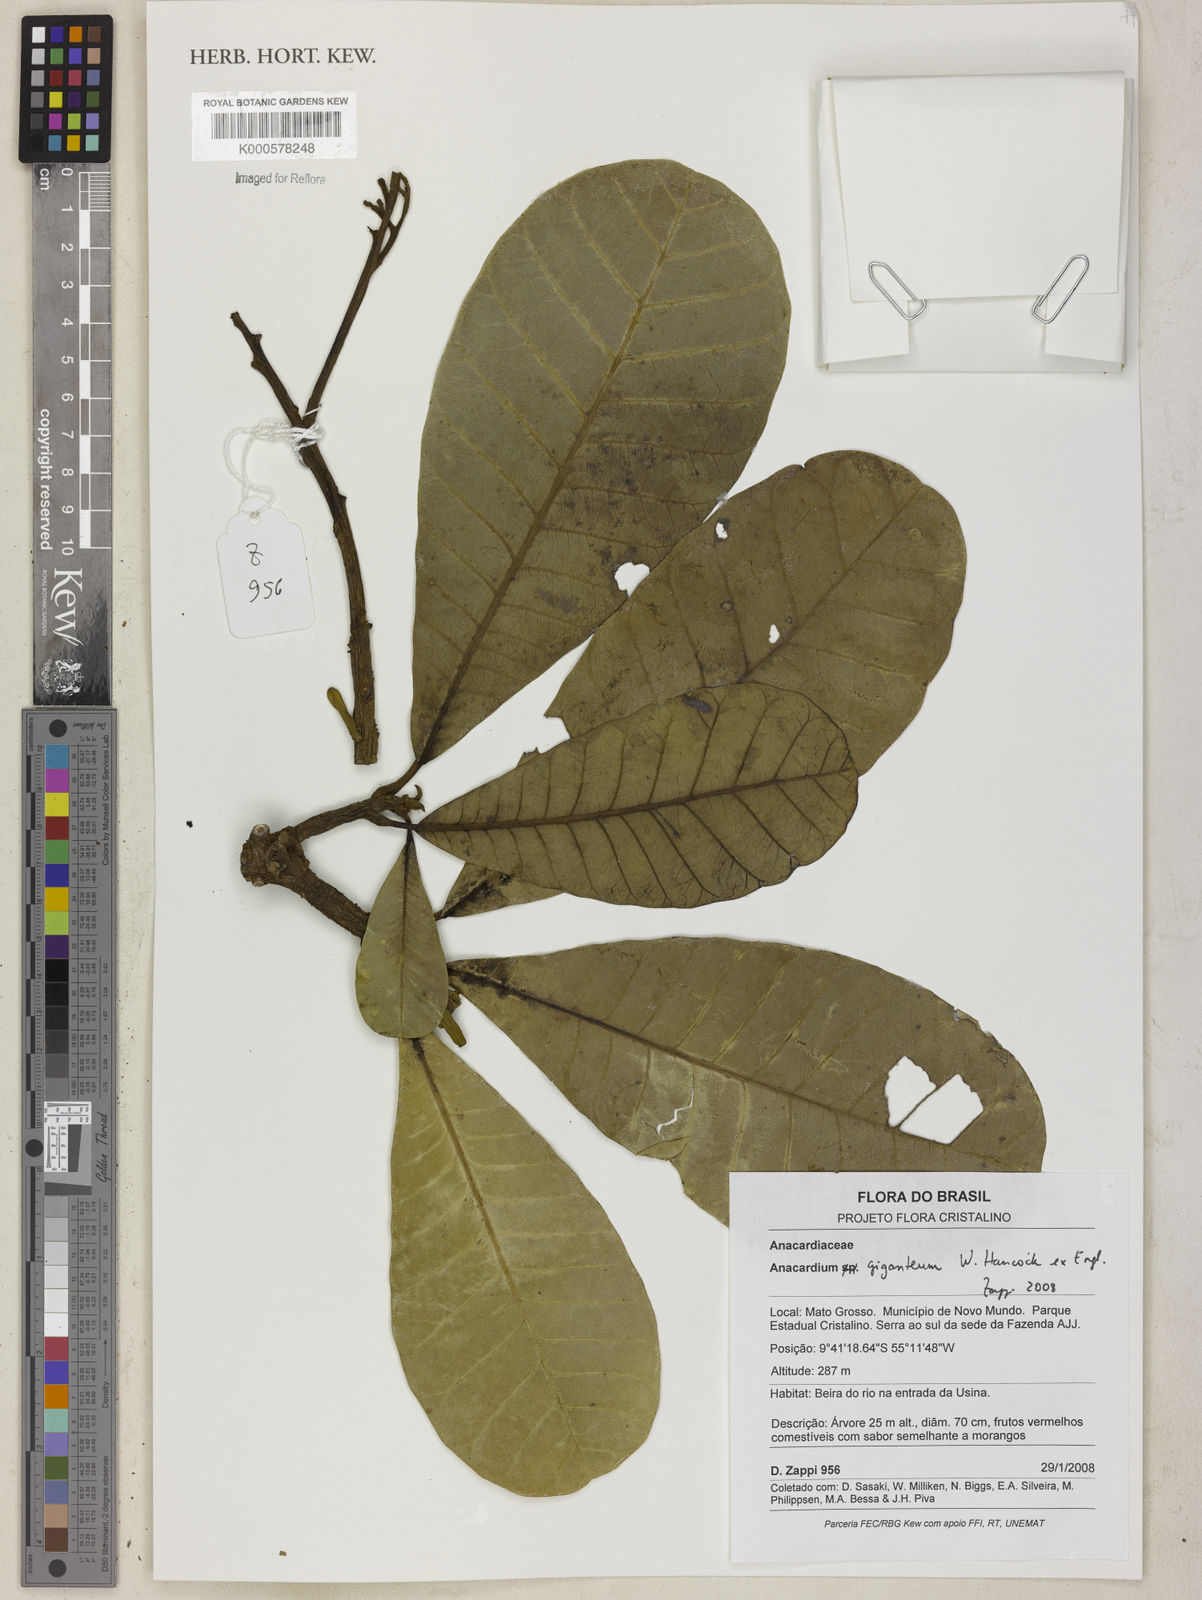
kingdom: Plantae
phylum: Tracheophyta
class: Magnoliopsida
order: Sapindales
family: Anacardiaceae
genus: Anacardium
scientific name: Anacardium giganteum
